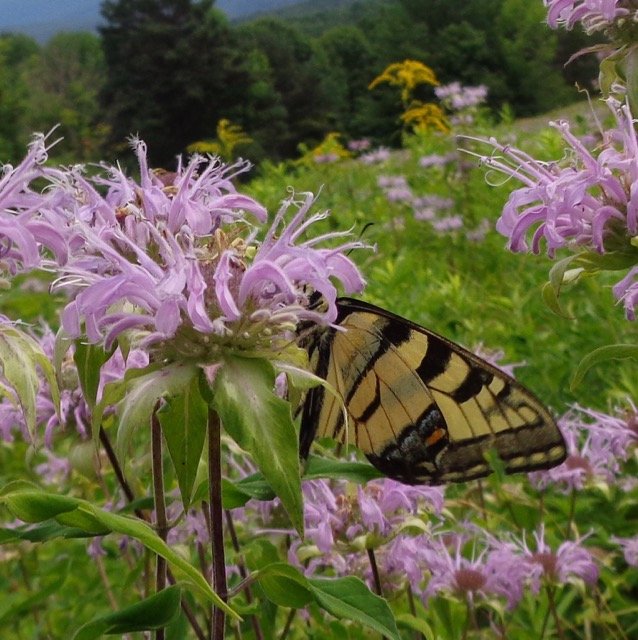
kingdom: Animalia
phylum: Arthropoda
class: Insecta
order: Lepidoptera
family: Papilionidae
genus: Pterourus
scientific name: Pterourus
